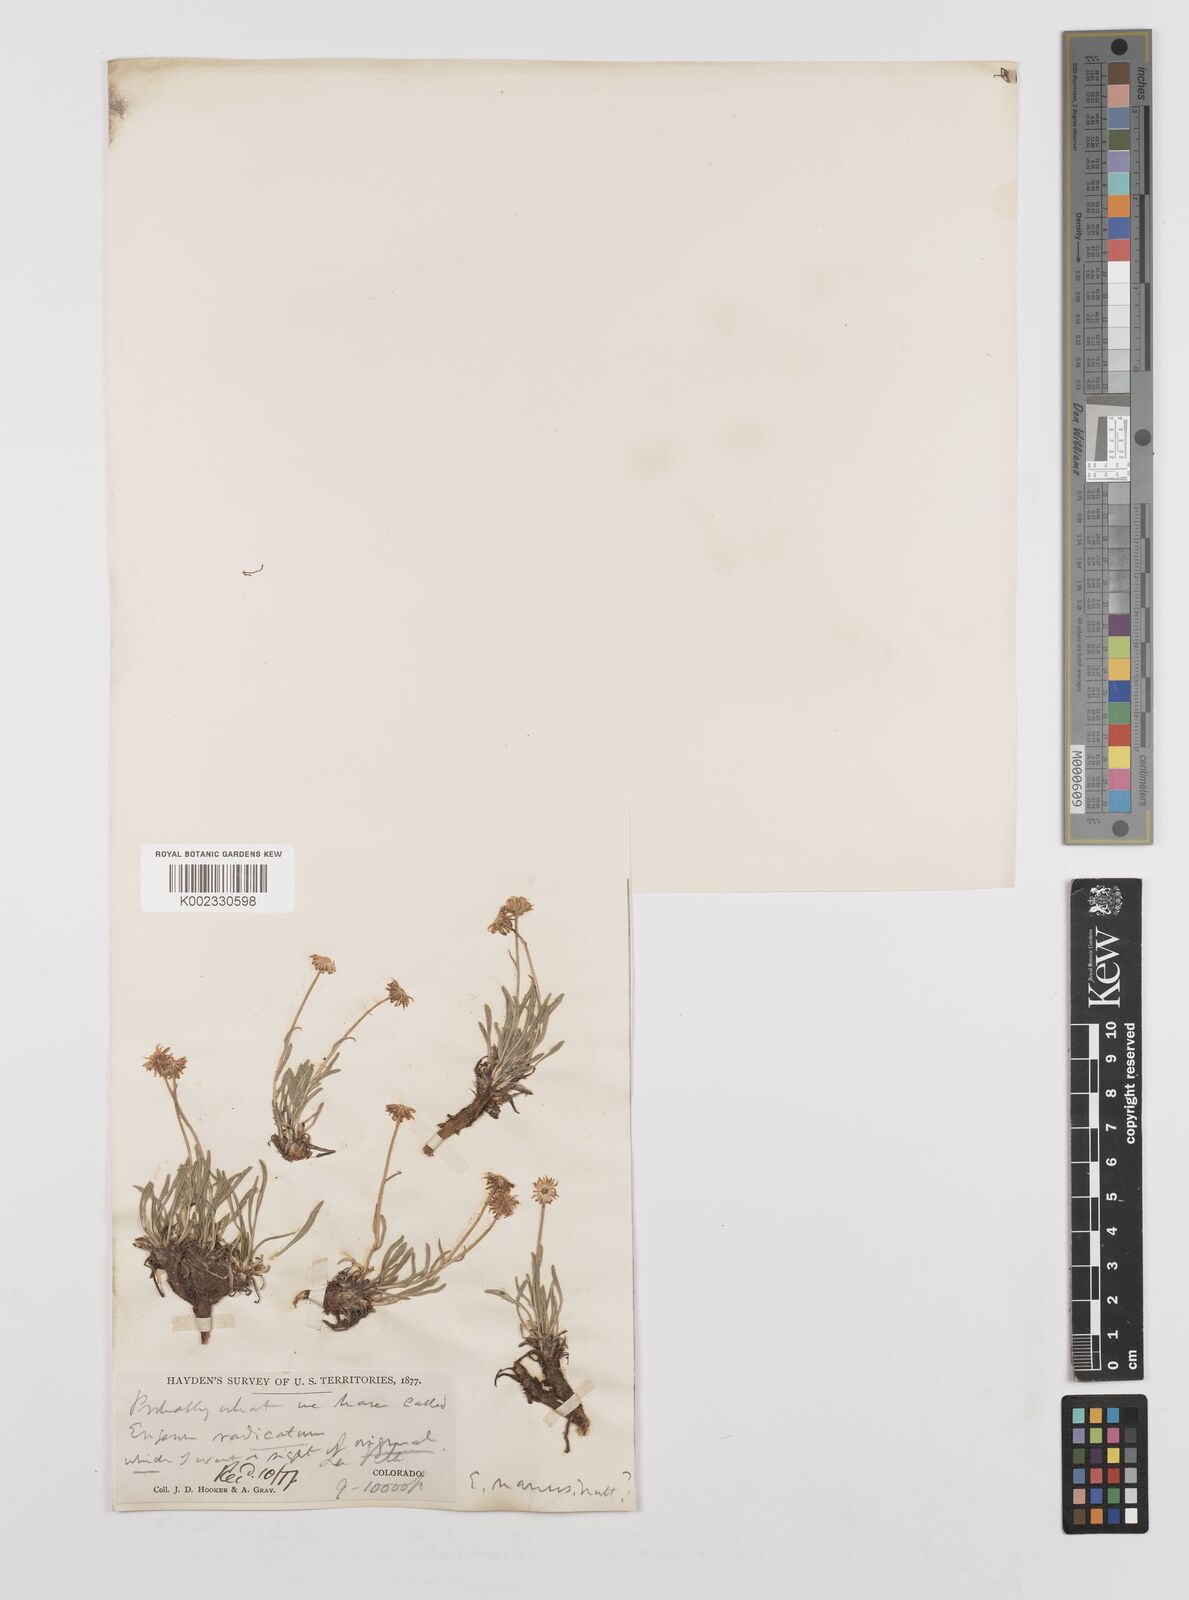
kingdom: Plantae
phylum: Tracheophyta
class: Magnoliopsida
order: Asterales
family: Asteraceae
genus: Erigeron
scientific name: Erigeron radicatus
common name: Dwarf fleabane
